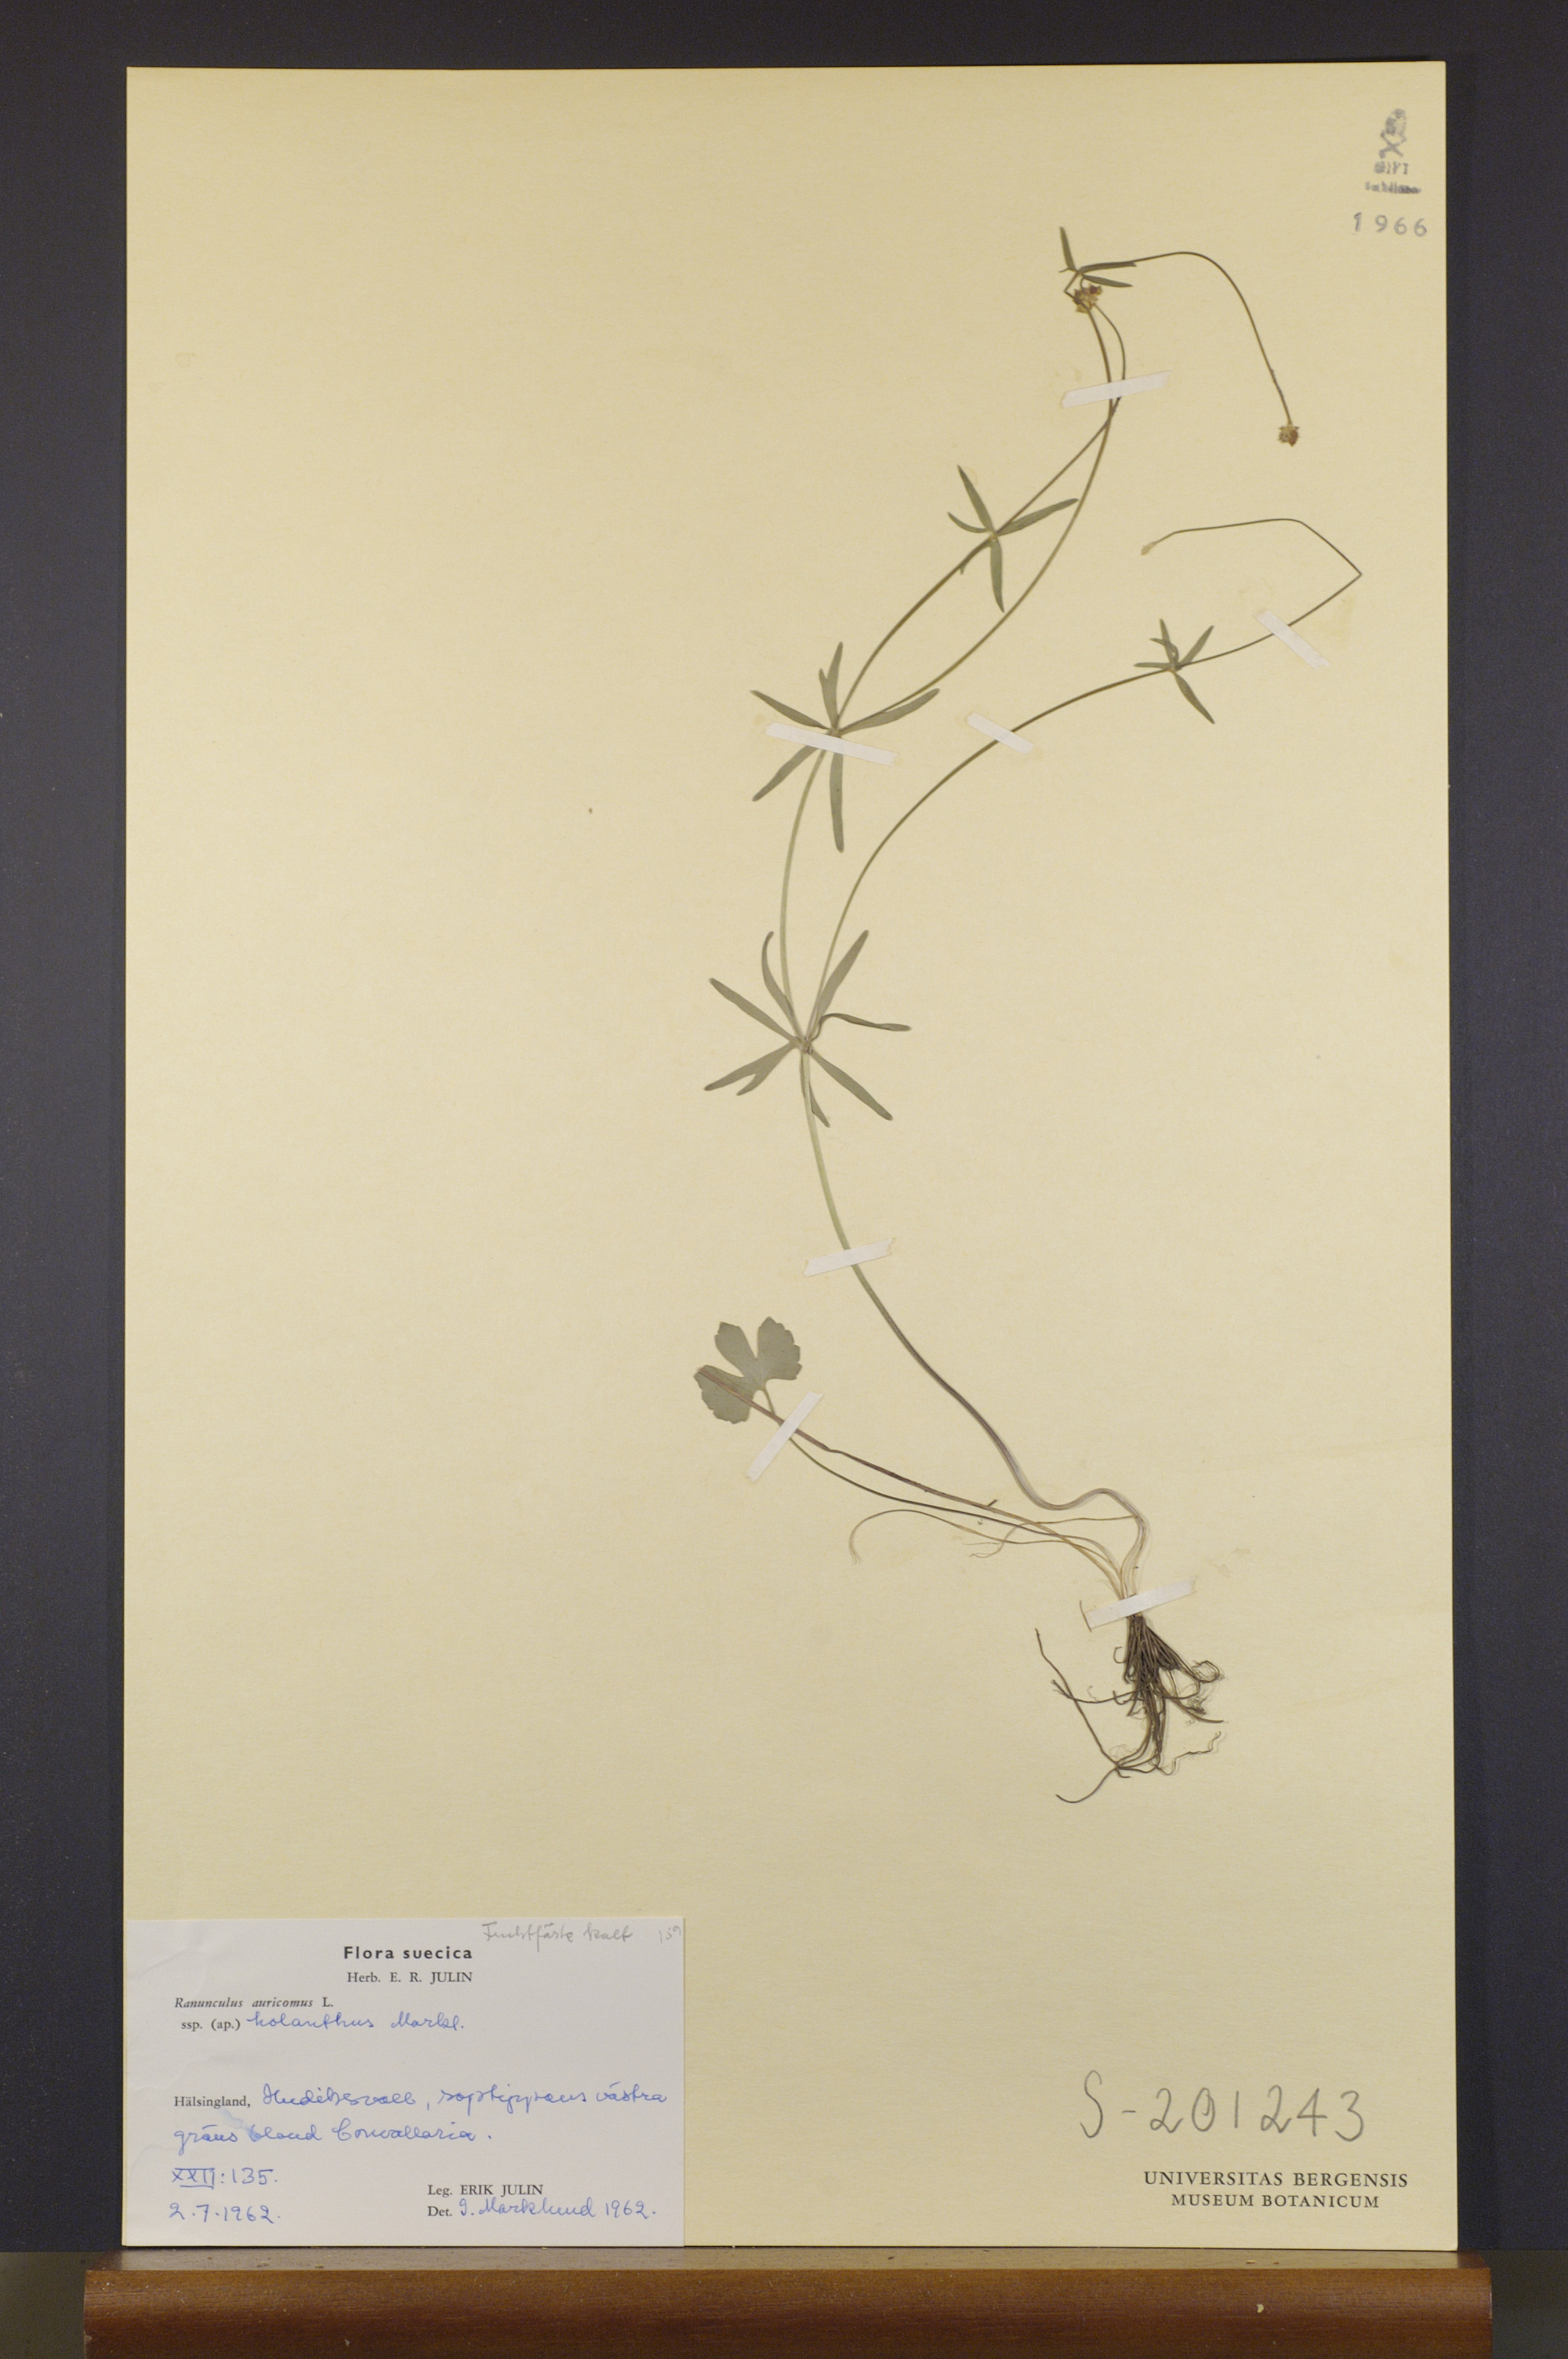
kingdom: Plantae
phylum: Tracheophyta
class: Magnoliopsida
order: Ranunculales
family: Ranunculaceae
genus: Ranunculus
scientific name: Ranunculus holanthus
